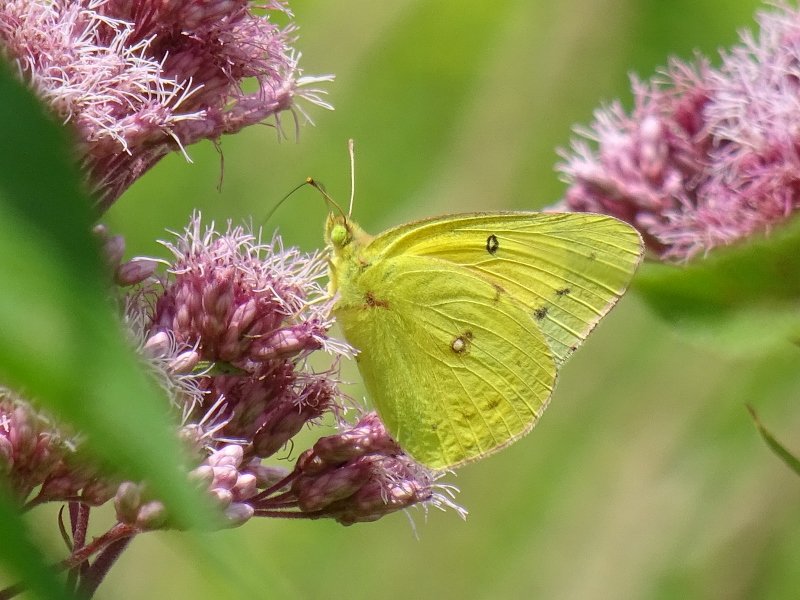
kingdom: Animalia
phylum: Arthropoda
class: Insecta
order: Lepidoptera
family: Pieridae
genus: Colias
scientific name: Colias philodice
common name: Clouded Sulphur
